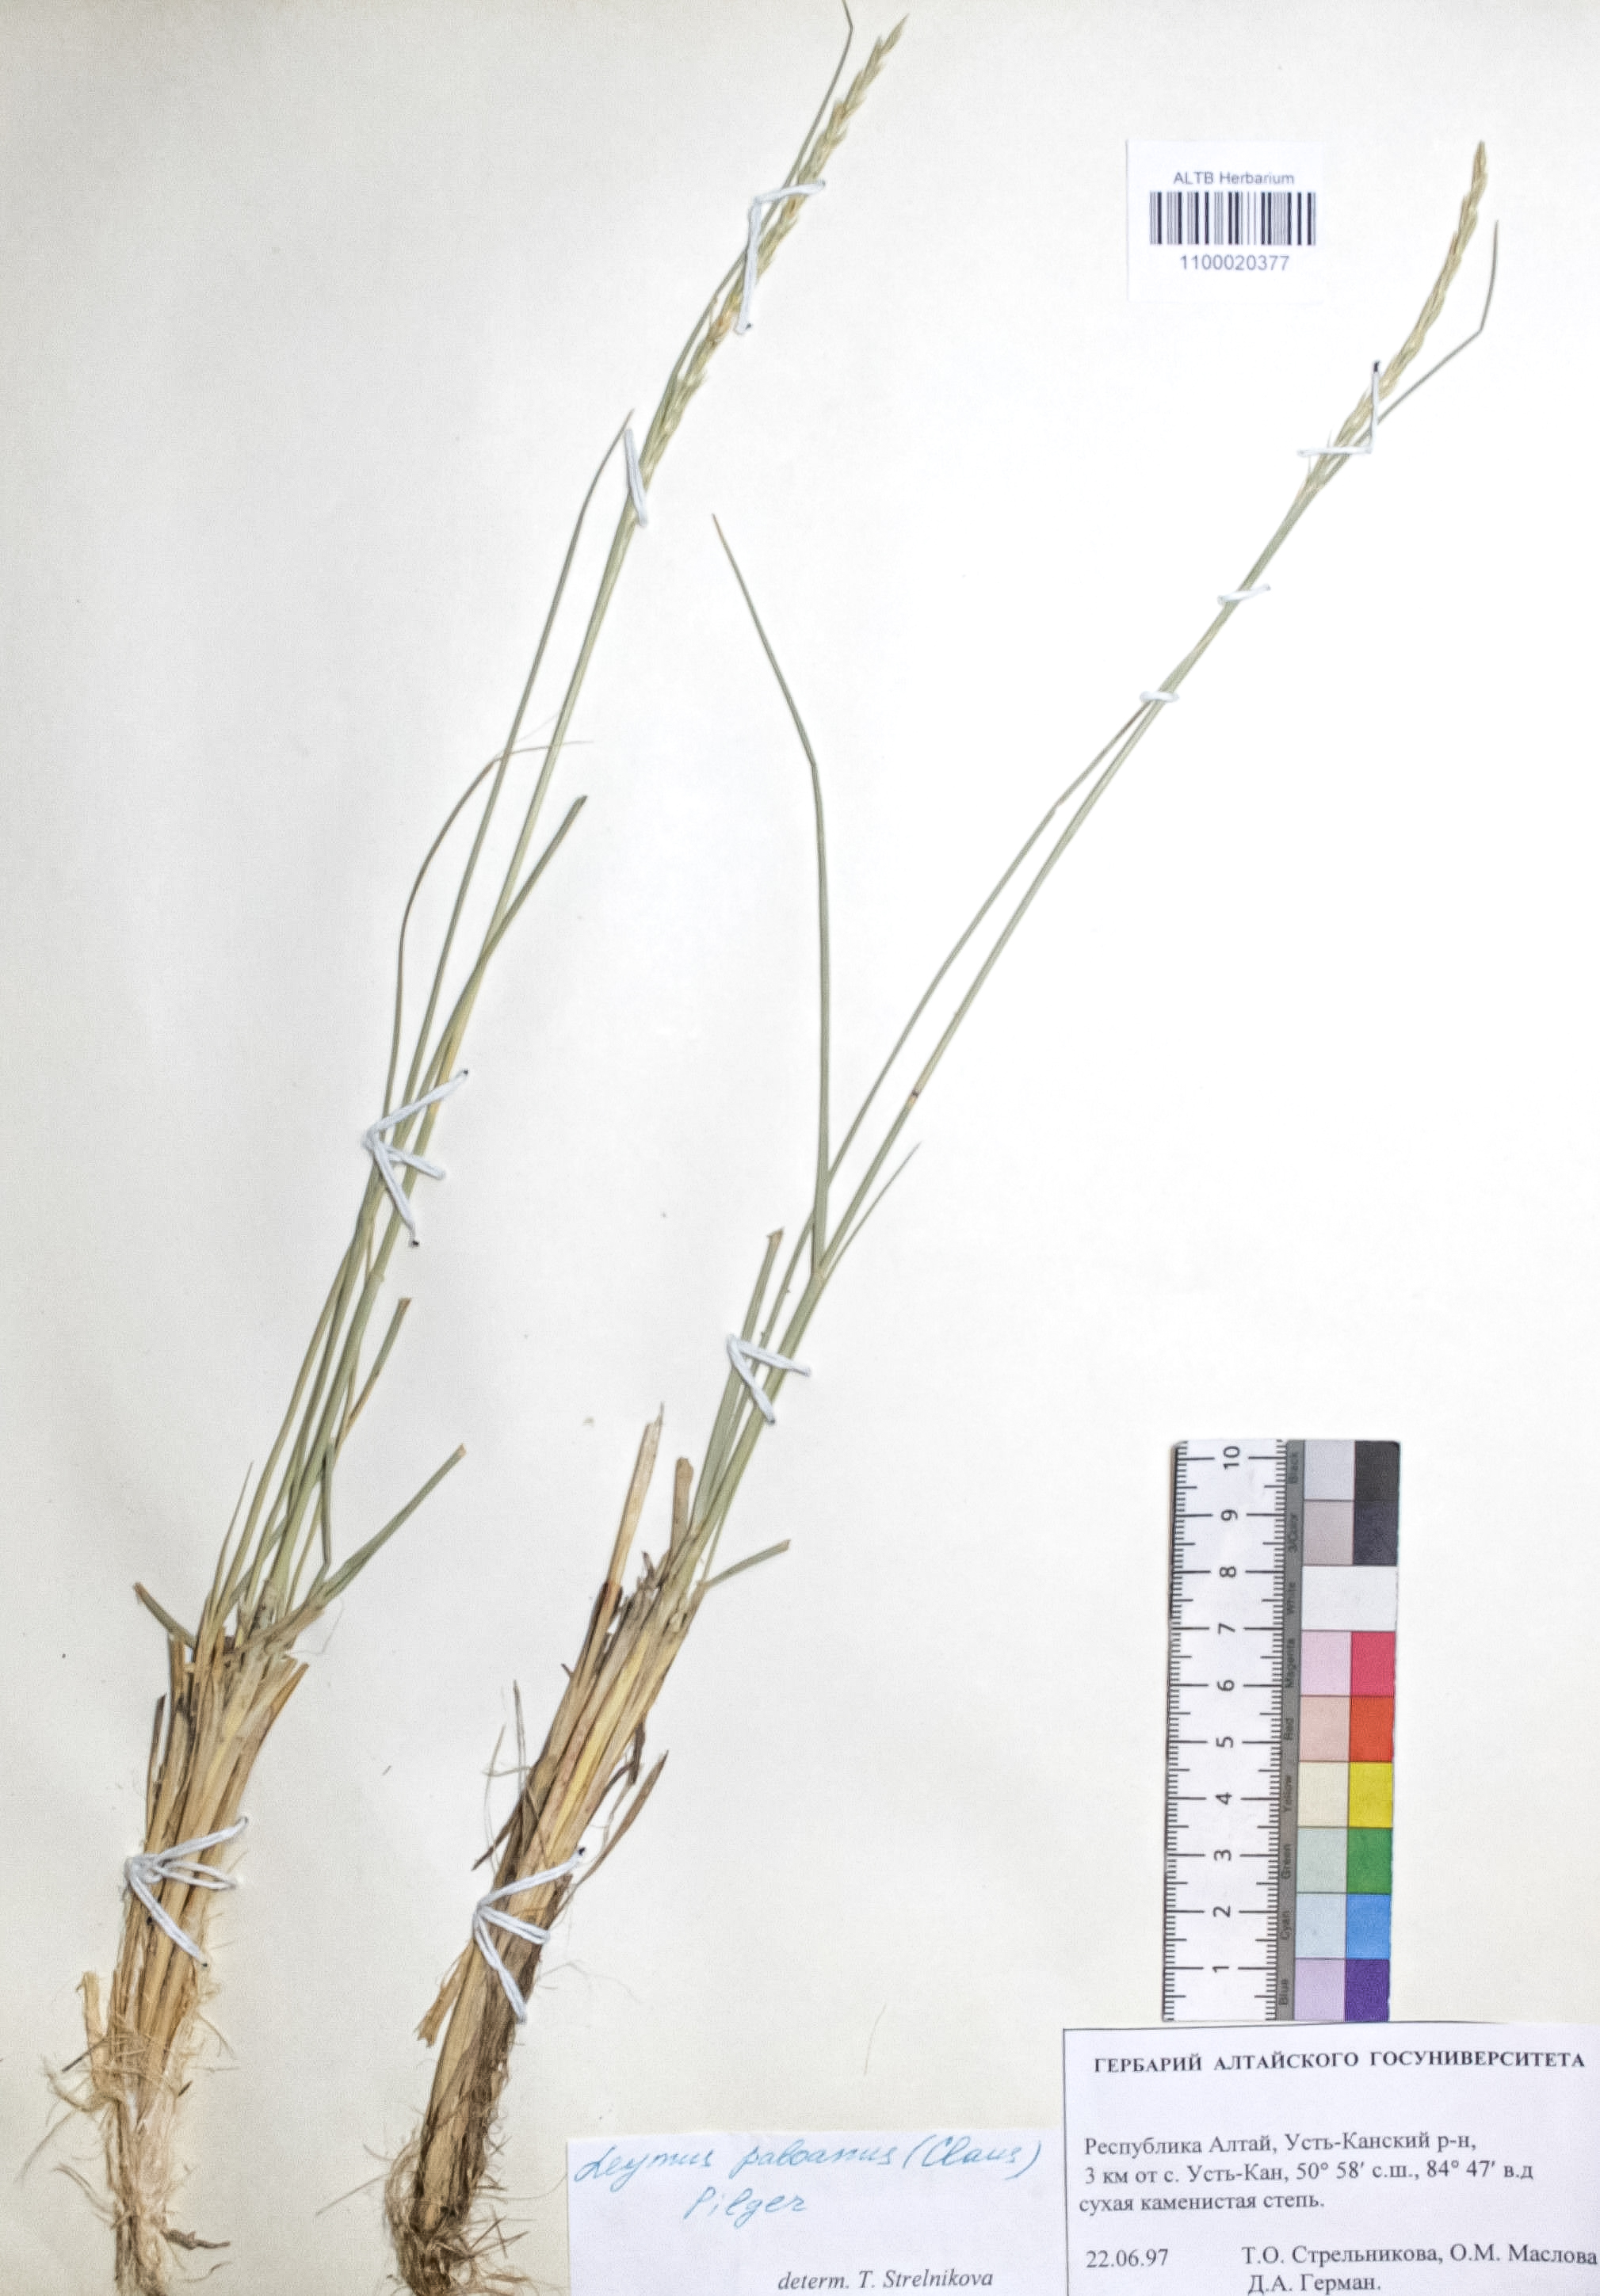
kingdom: Plantae
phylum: Tracheophyta
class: Liliopsida
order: Poales
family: Poaceae
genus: Leymus
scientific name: Leymus paboanus
